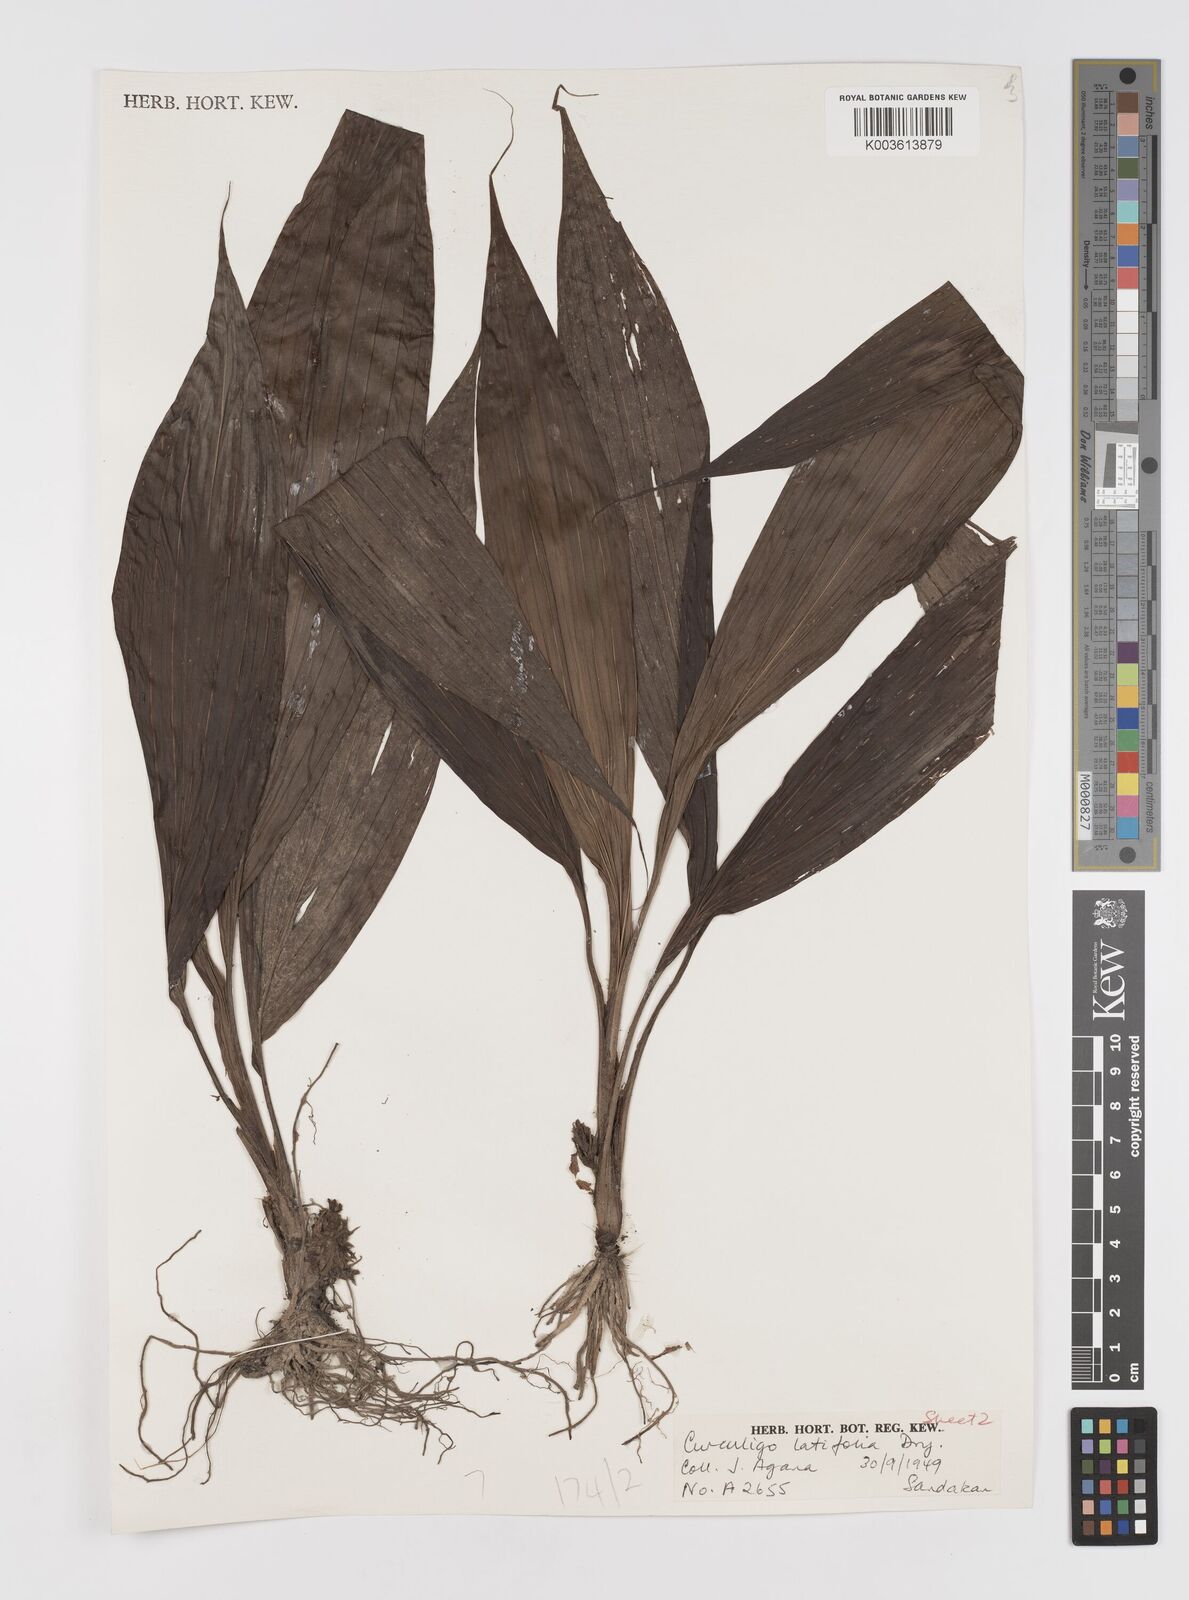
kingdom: Plantae
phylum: Tracheophyta
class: Liliopsida
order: Asparagales
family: Hypoxidaceae
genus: Curculigo
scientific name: Curculigo latifolia
